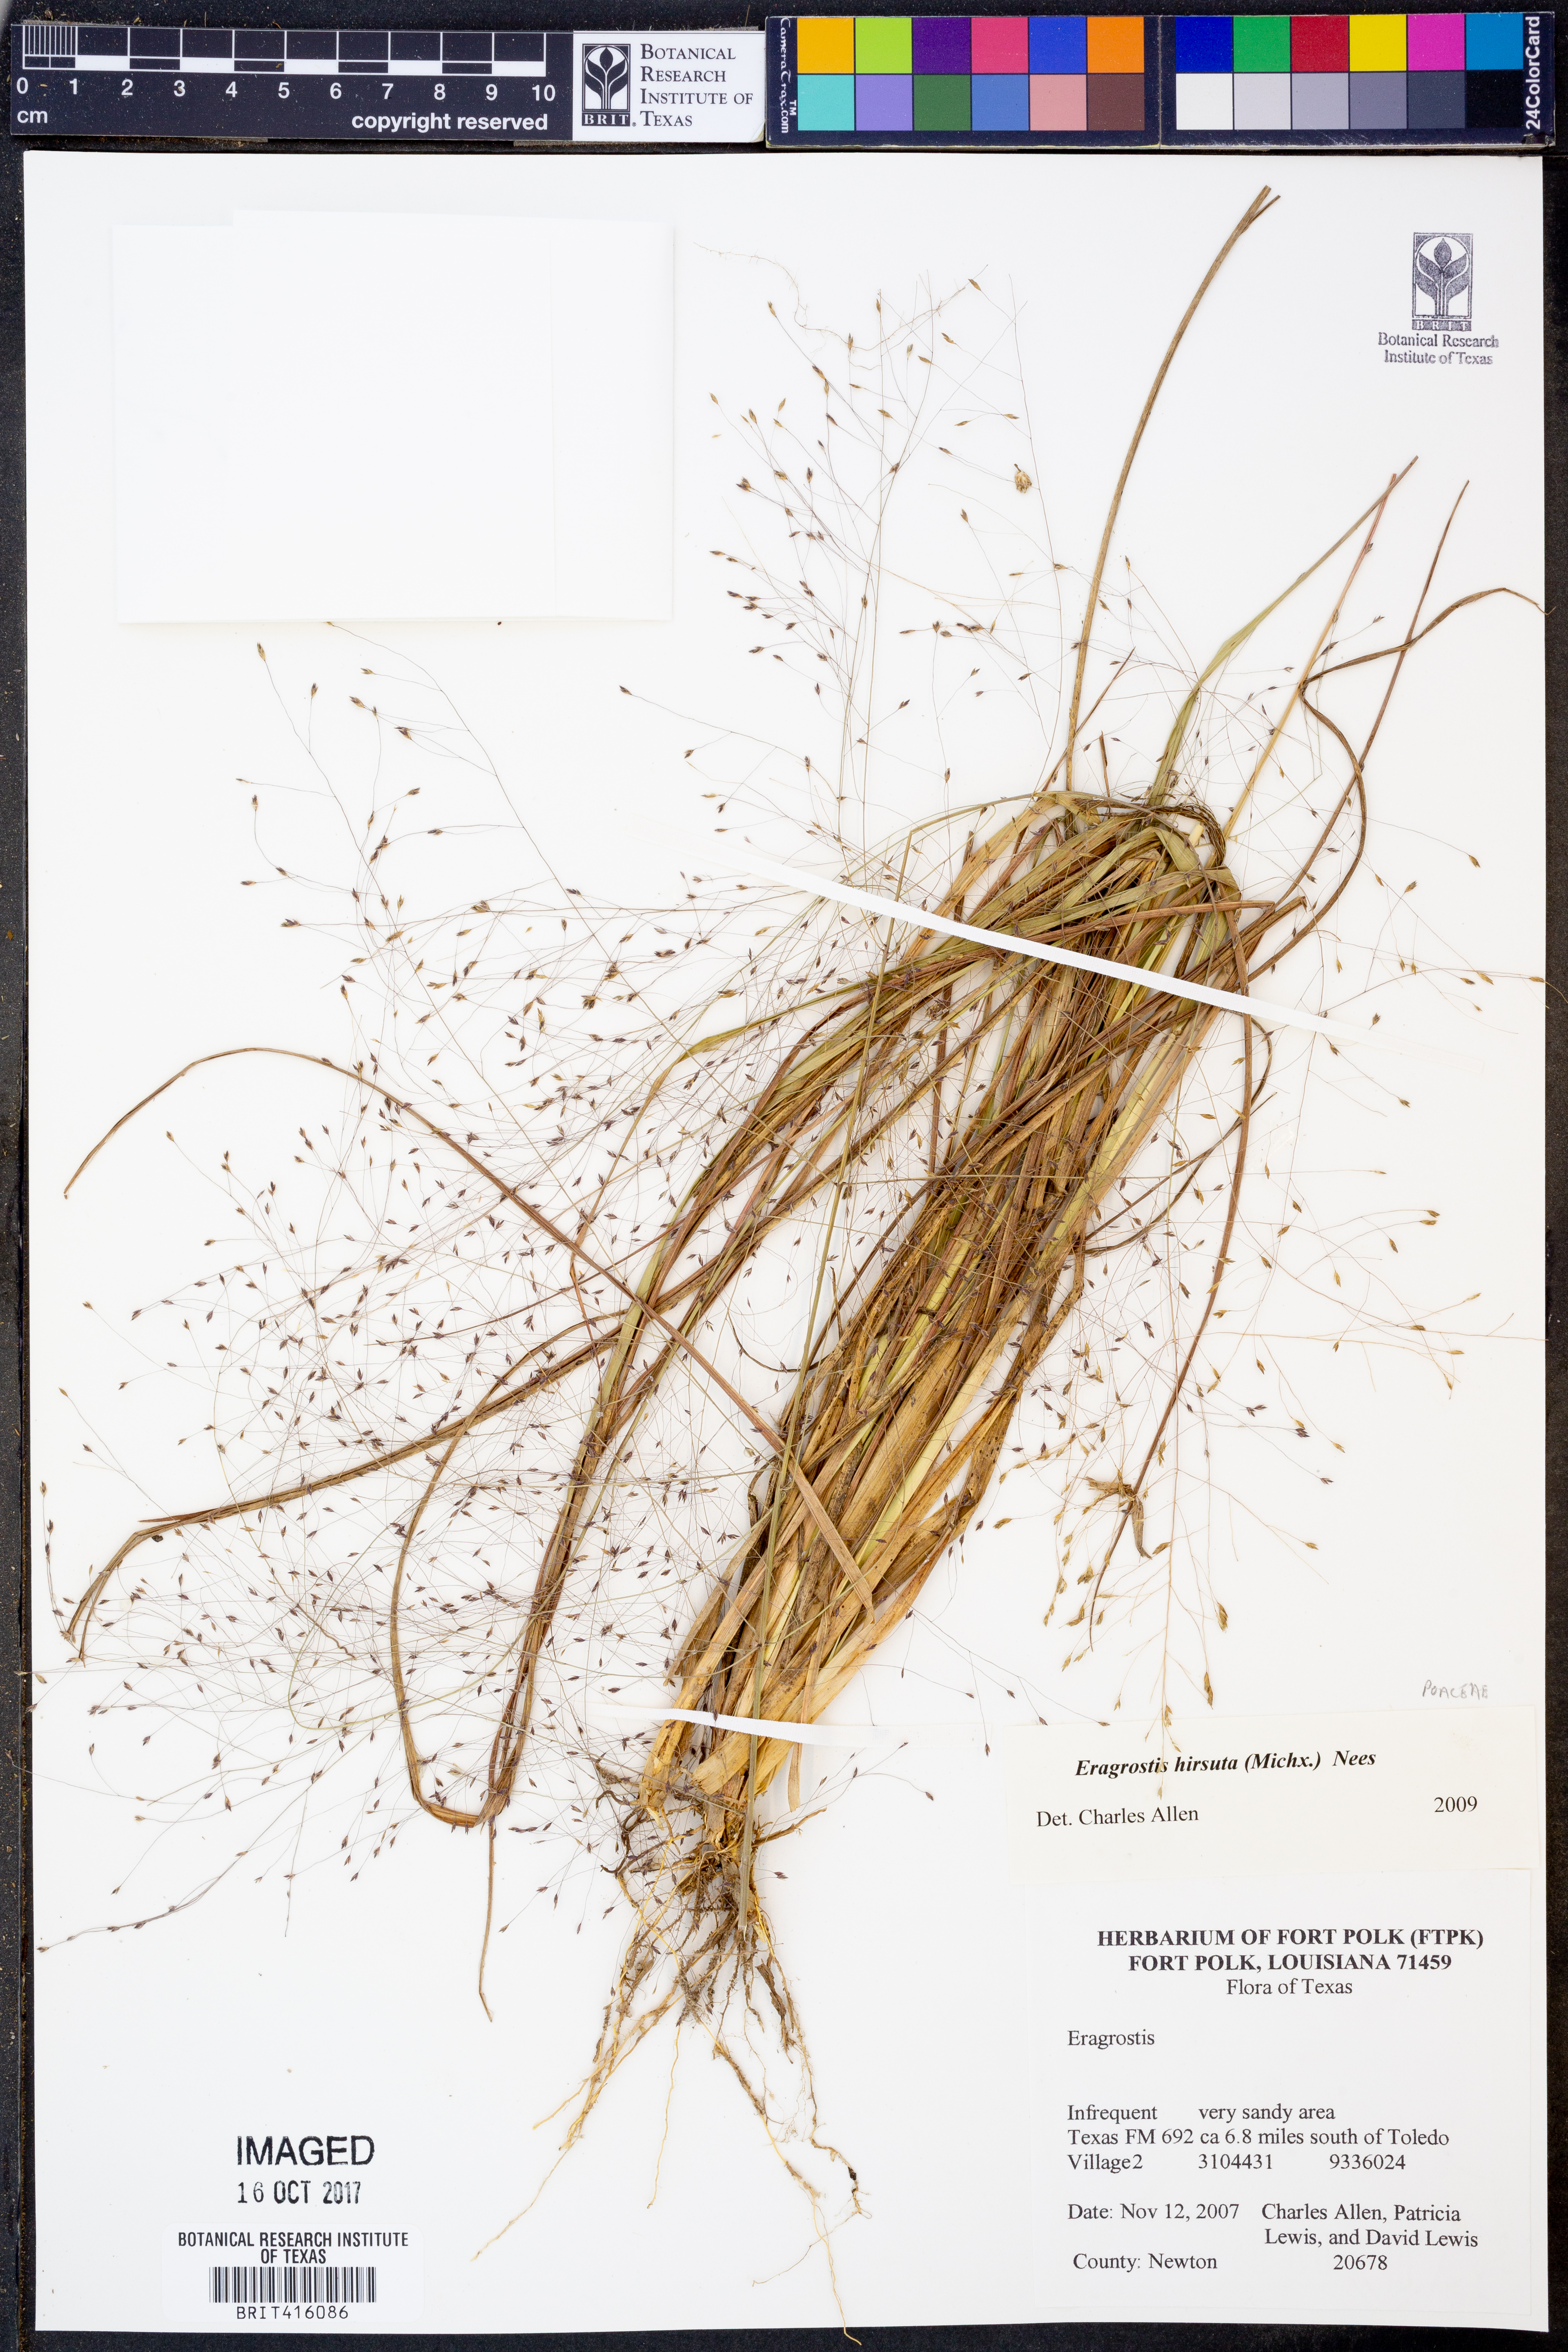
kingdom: Plantae
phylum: Tracheophyta
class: Liliopsida
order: Poales
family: Poaceae
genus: Eragrostis
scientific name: Eragrostis hirsuta
